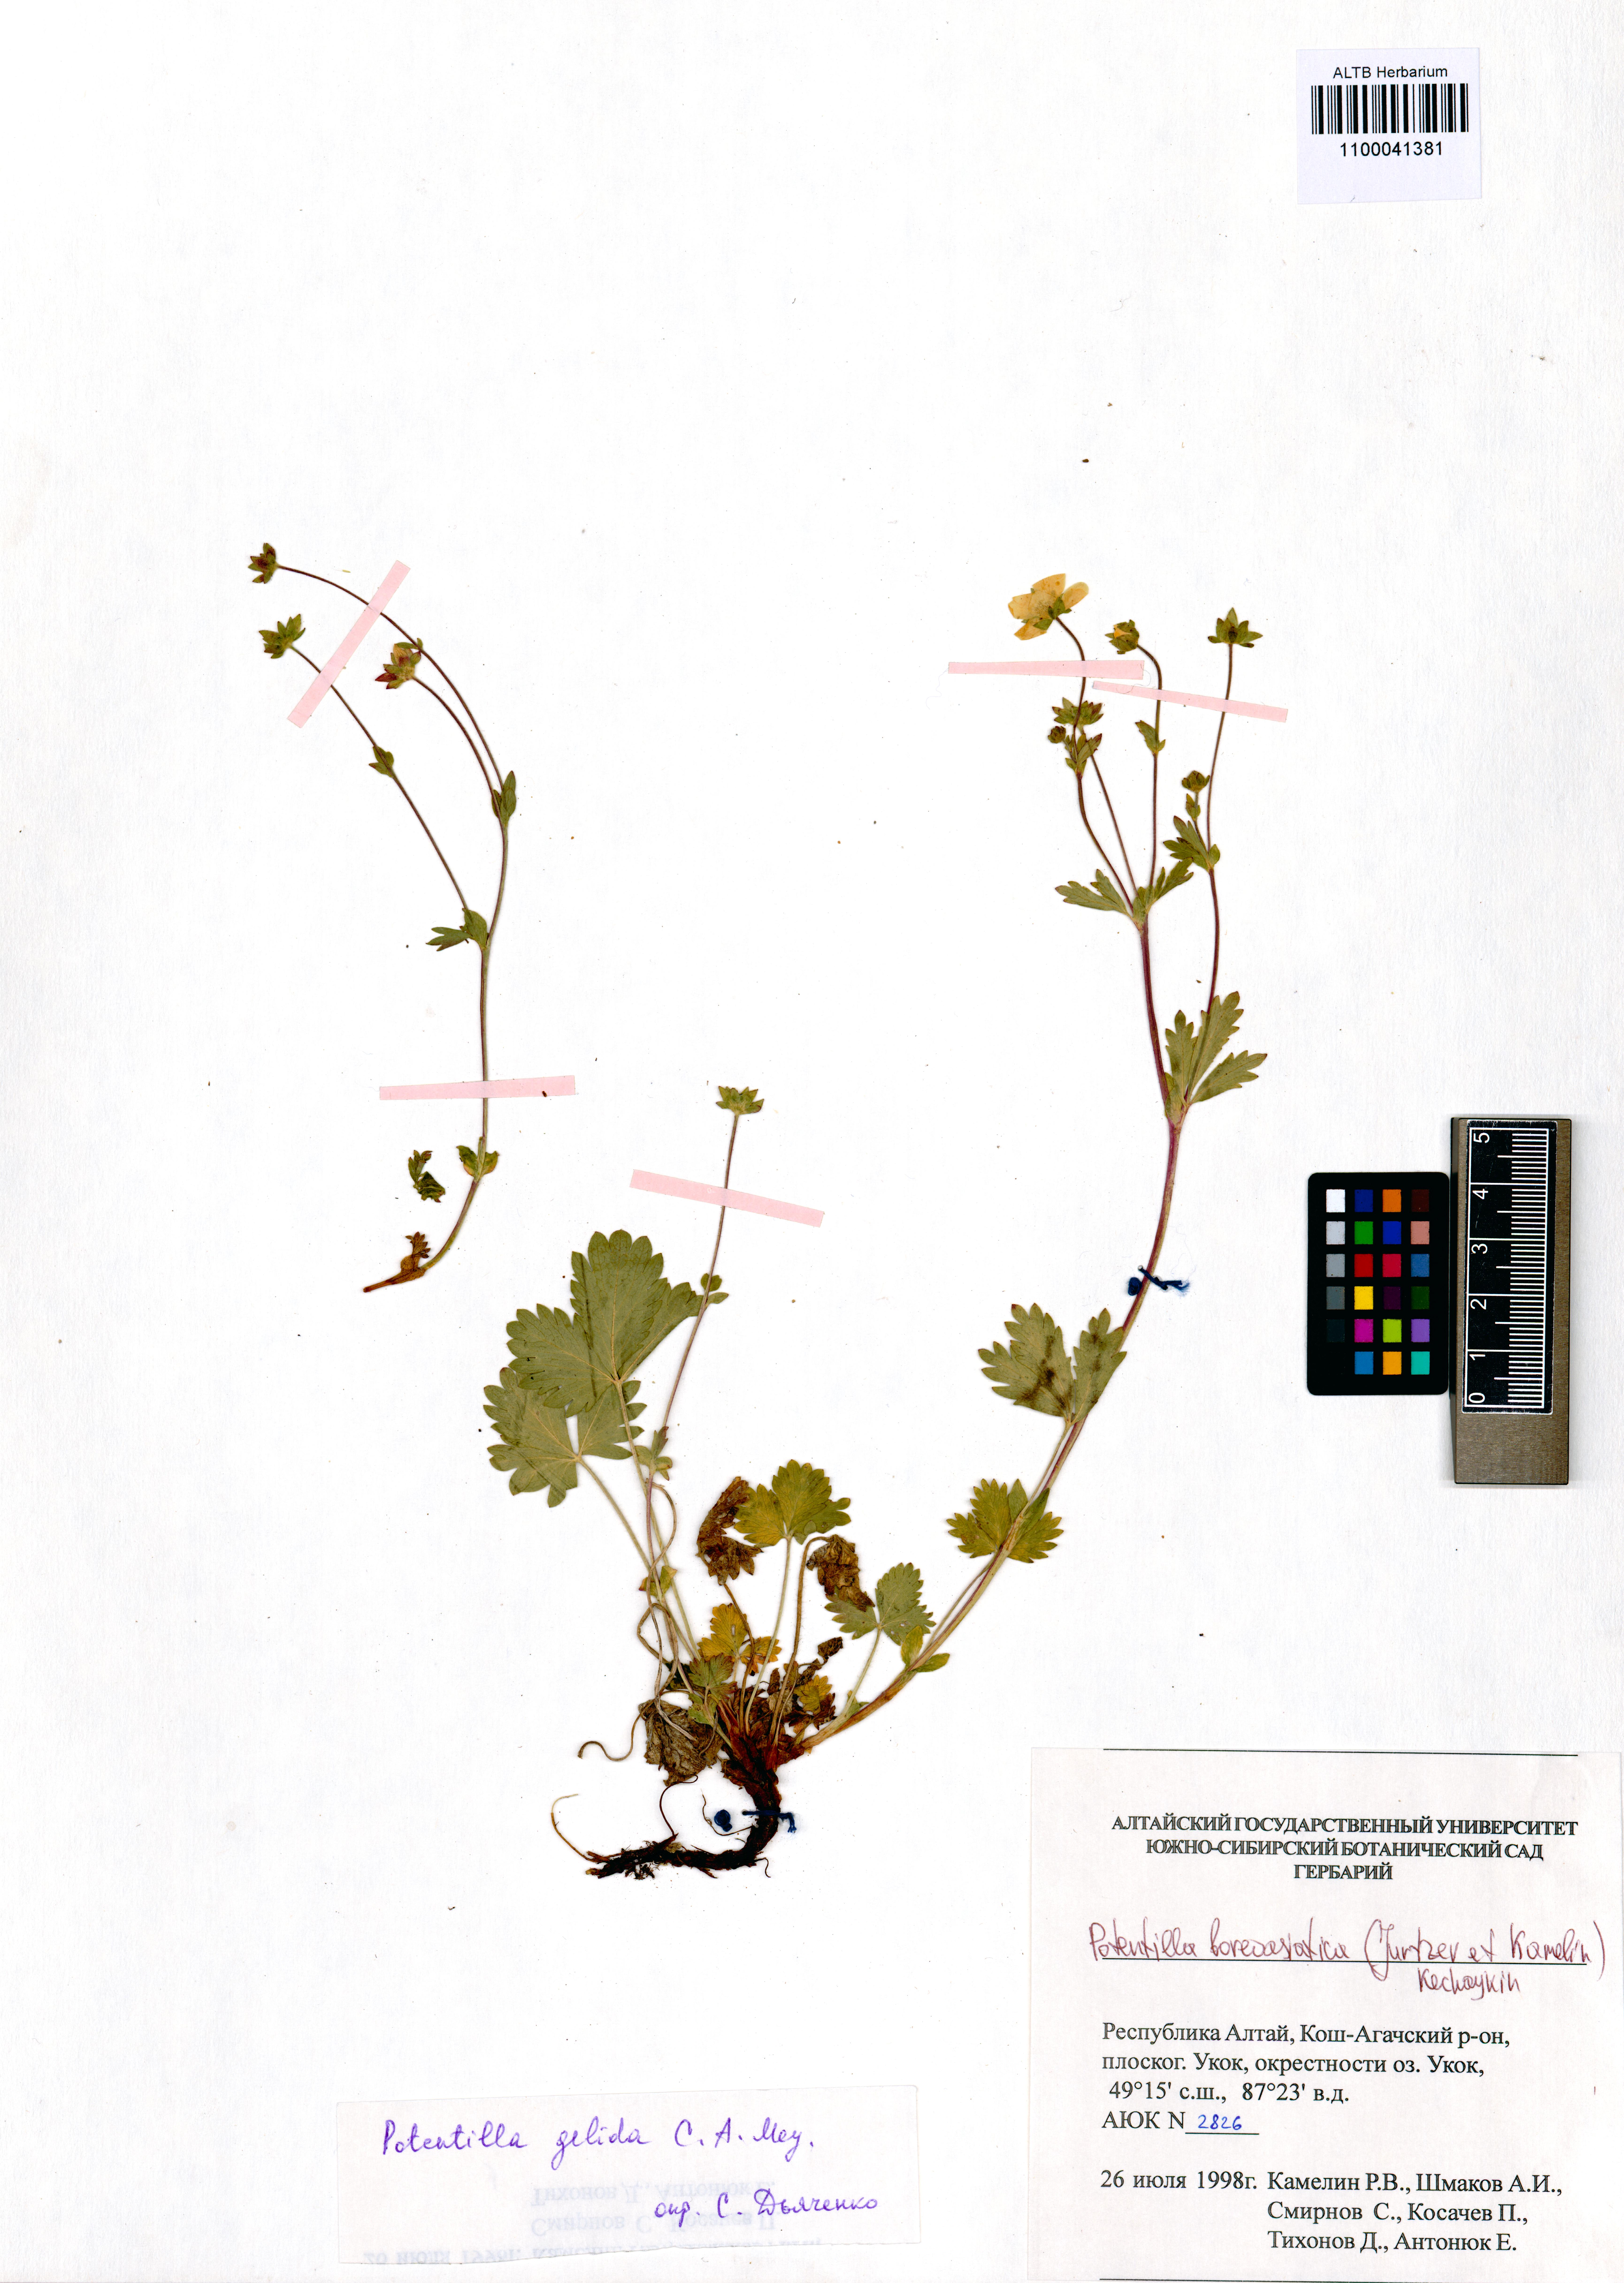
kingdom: Plantae
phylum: Tracheophyta
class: Magnoliopsida
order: Rosales
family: Rosaceae
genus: Potentilla
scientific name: Potentilla
